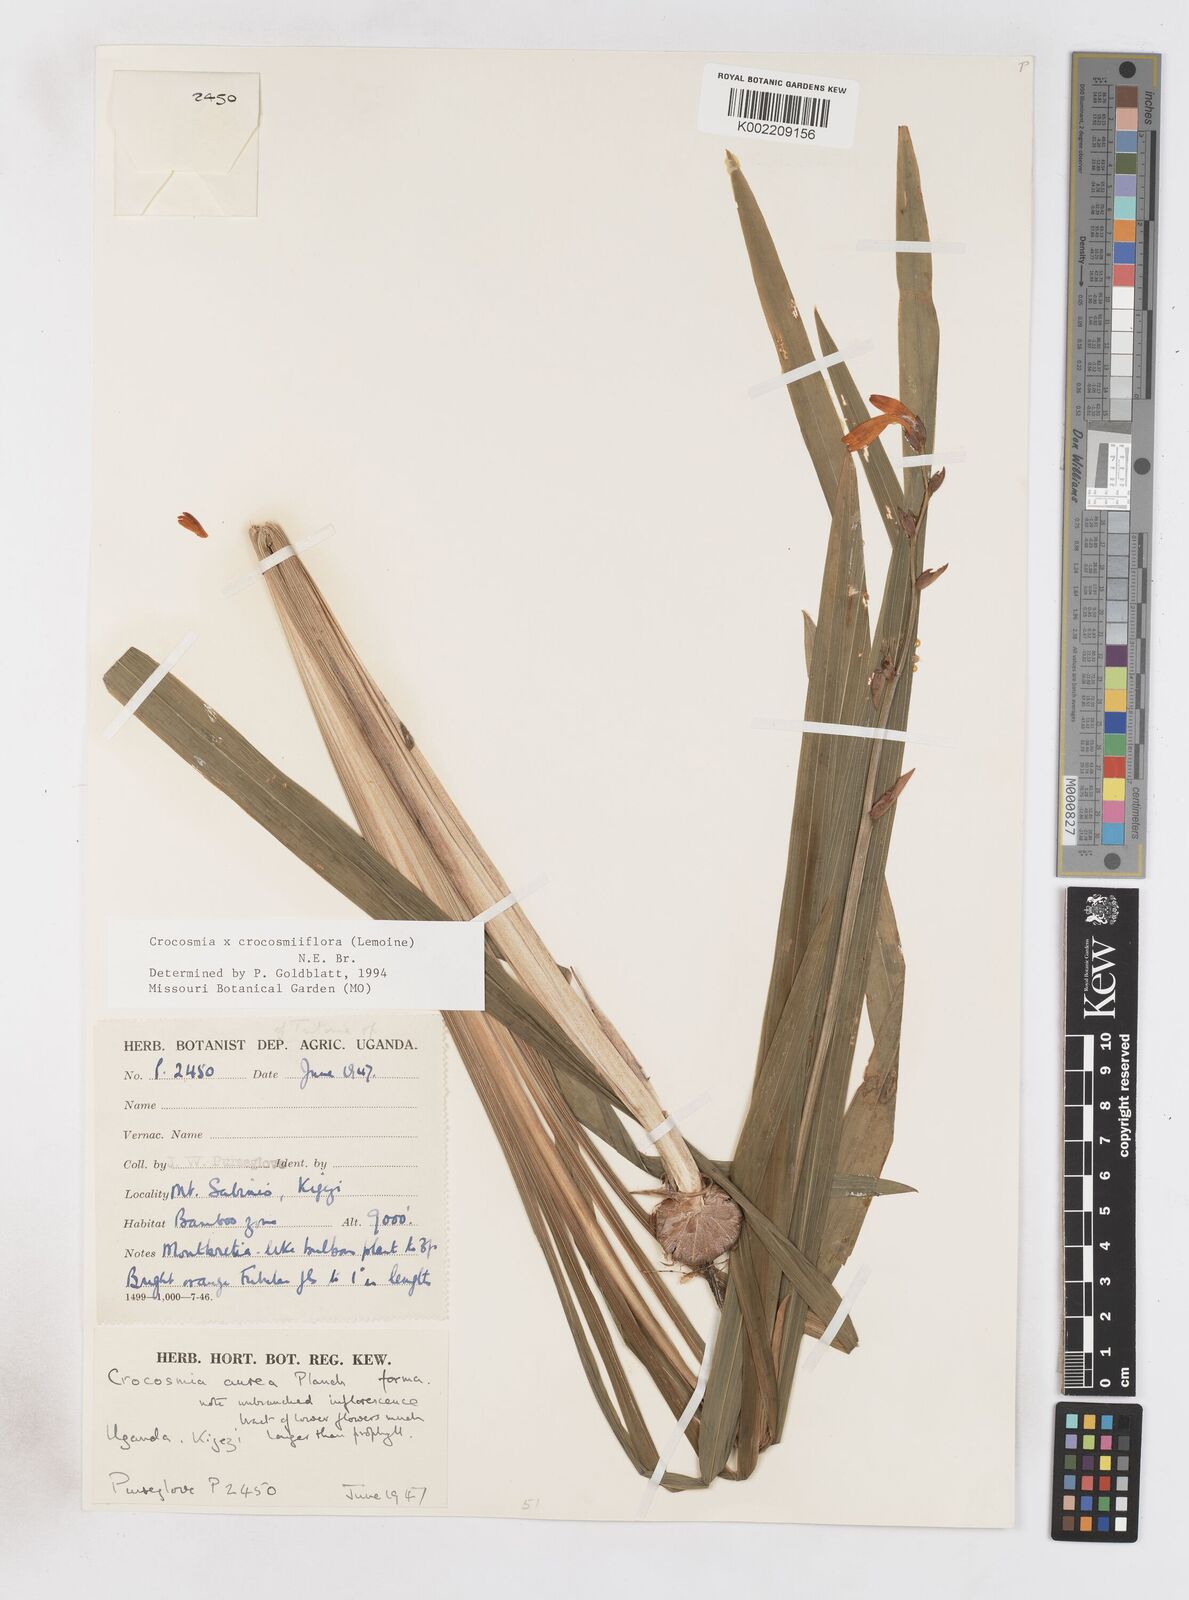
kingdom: Plantae
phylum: Tracheophyta
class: Liliopsida
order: Asparagales
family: Iridaceae
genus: Crocosmia
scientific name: Crocosmia aurea
